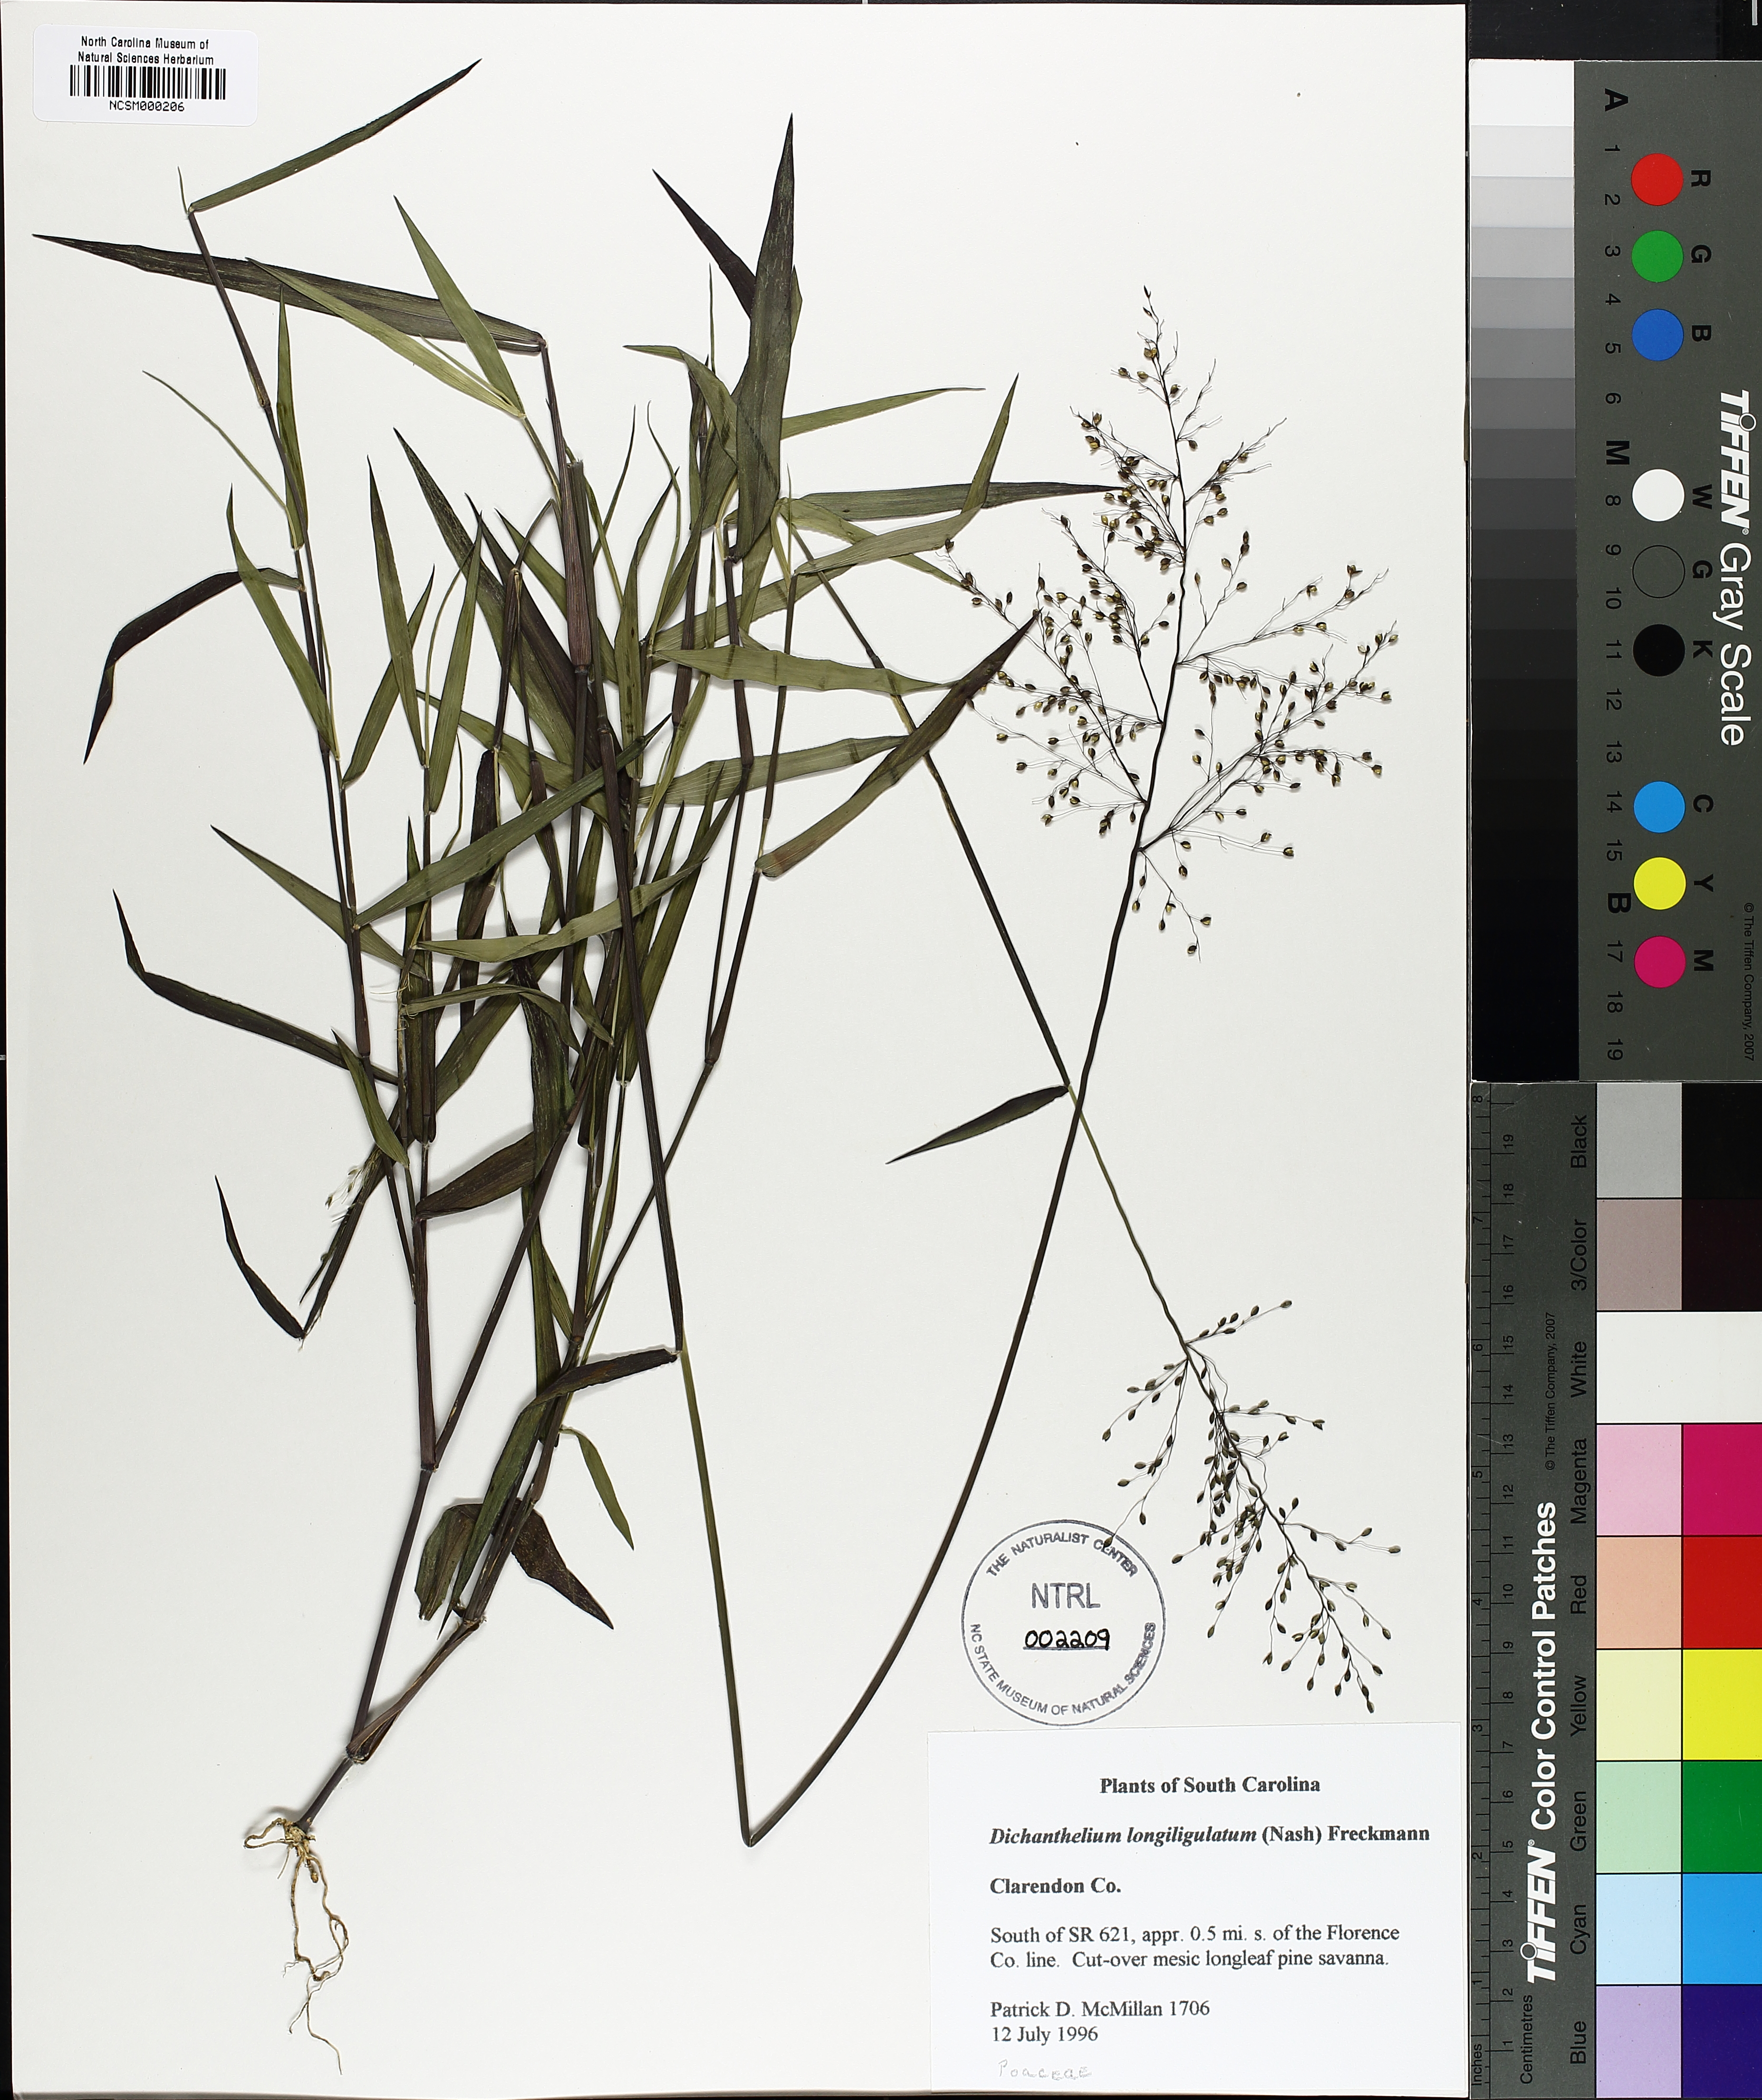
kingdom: Plantae
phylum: Tracheophyta
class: Liliopsida
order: Poales
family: Poaceae
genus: Dichanthelium
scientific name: Dichanthelium longiligulatum
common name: Long-ligule panicgrass
